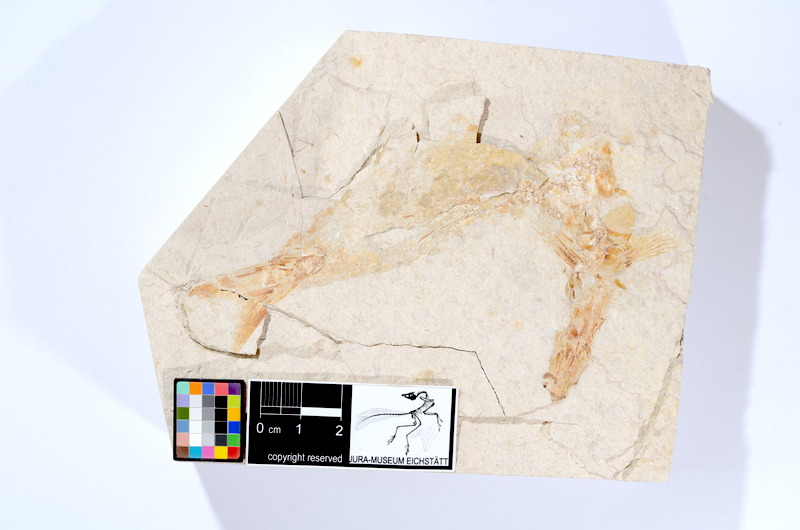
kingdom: Animalia
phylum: Chordata
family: Ascalaboidae
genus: Tharsis
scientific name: Tharsis dubius
